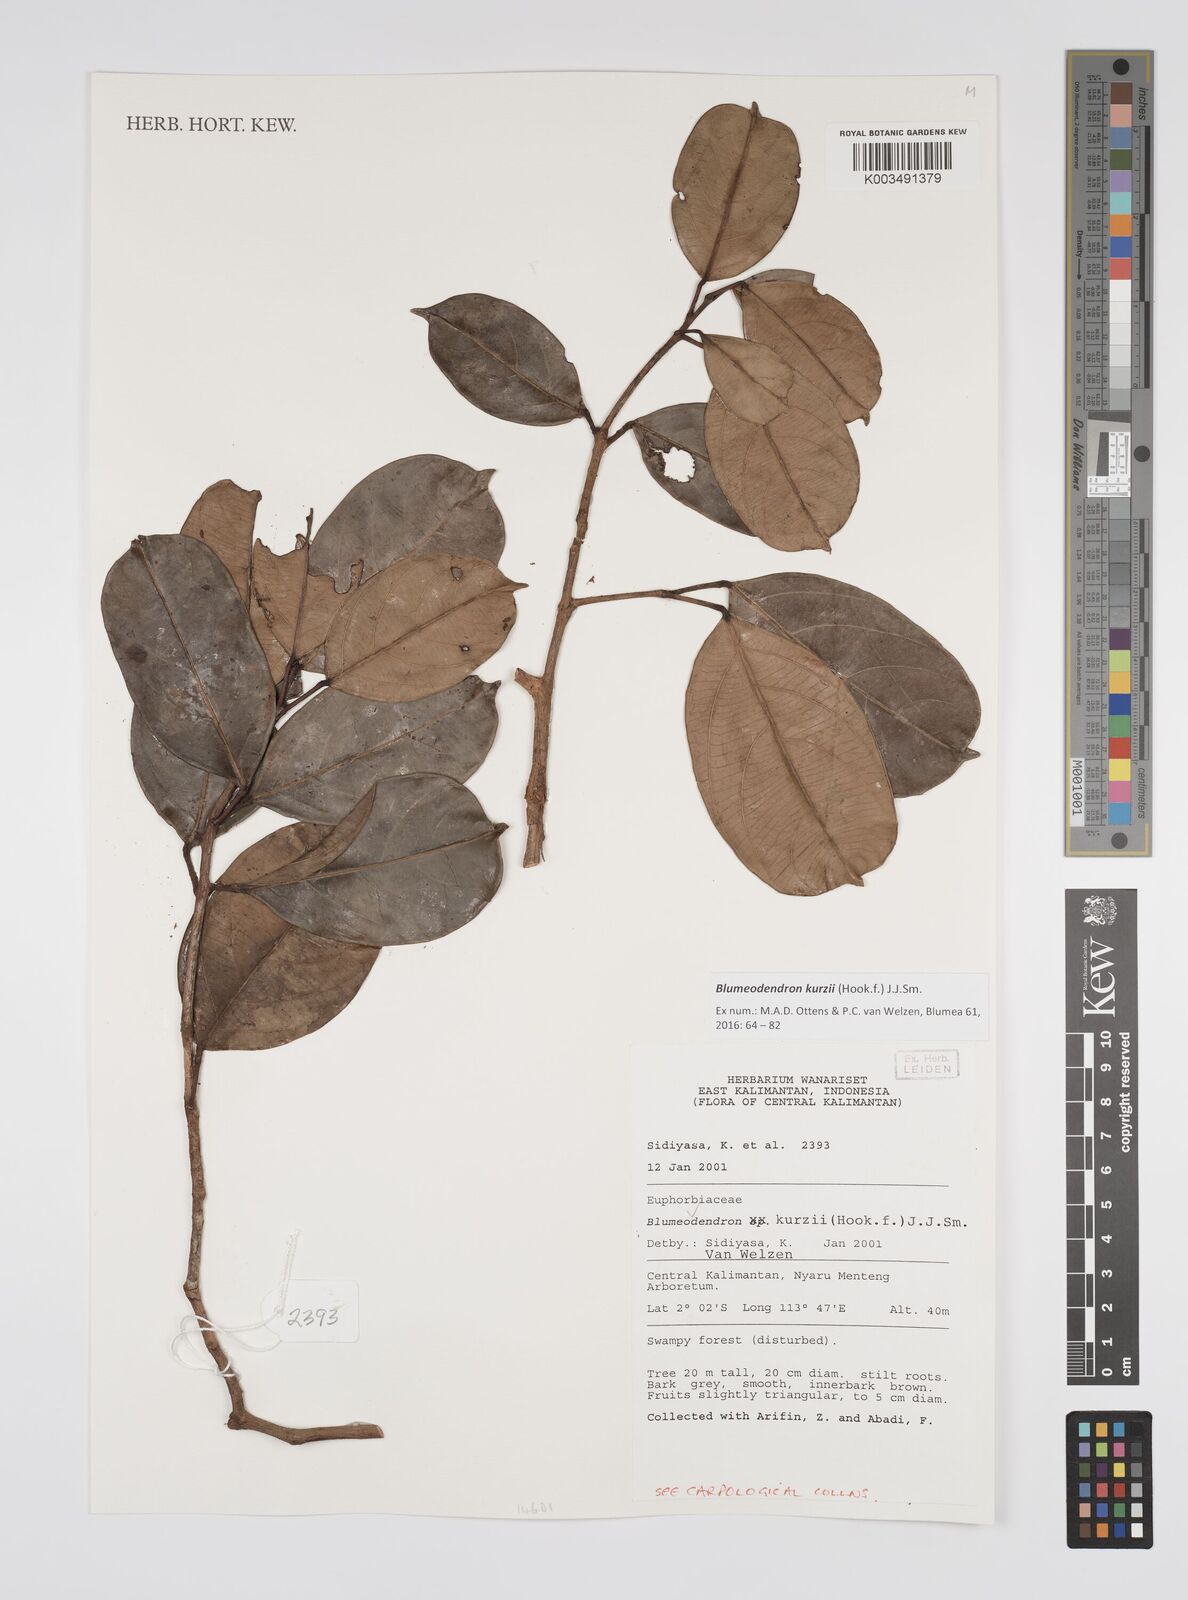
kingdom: Plantae
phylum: Tracheophyta
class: Magnoliopsida
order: Malpighiales
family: Euphorbiaceae
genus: Blumeodendron
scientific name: Blumeodendron kurzii
